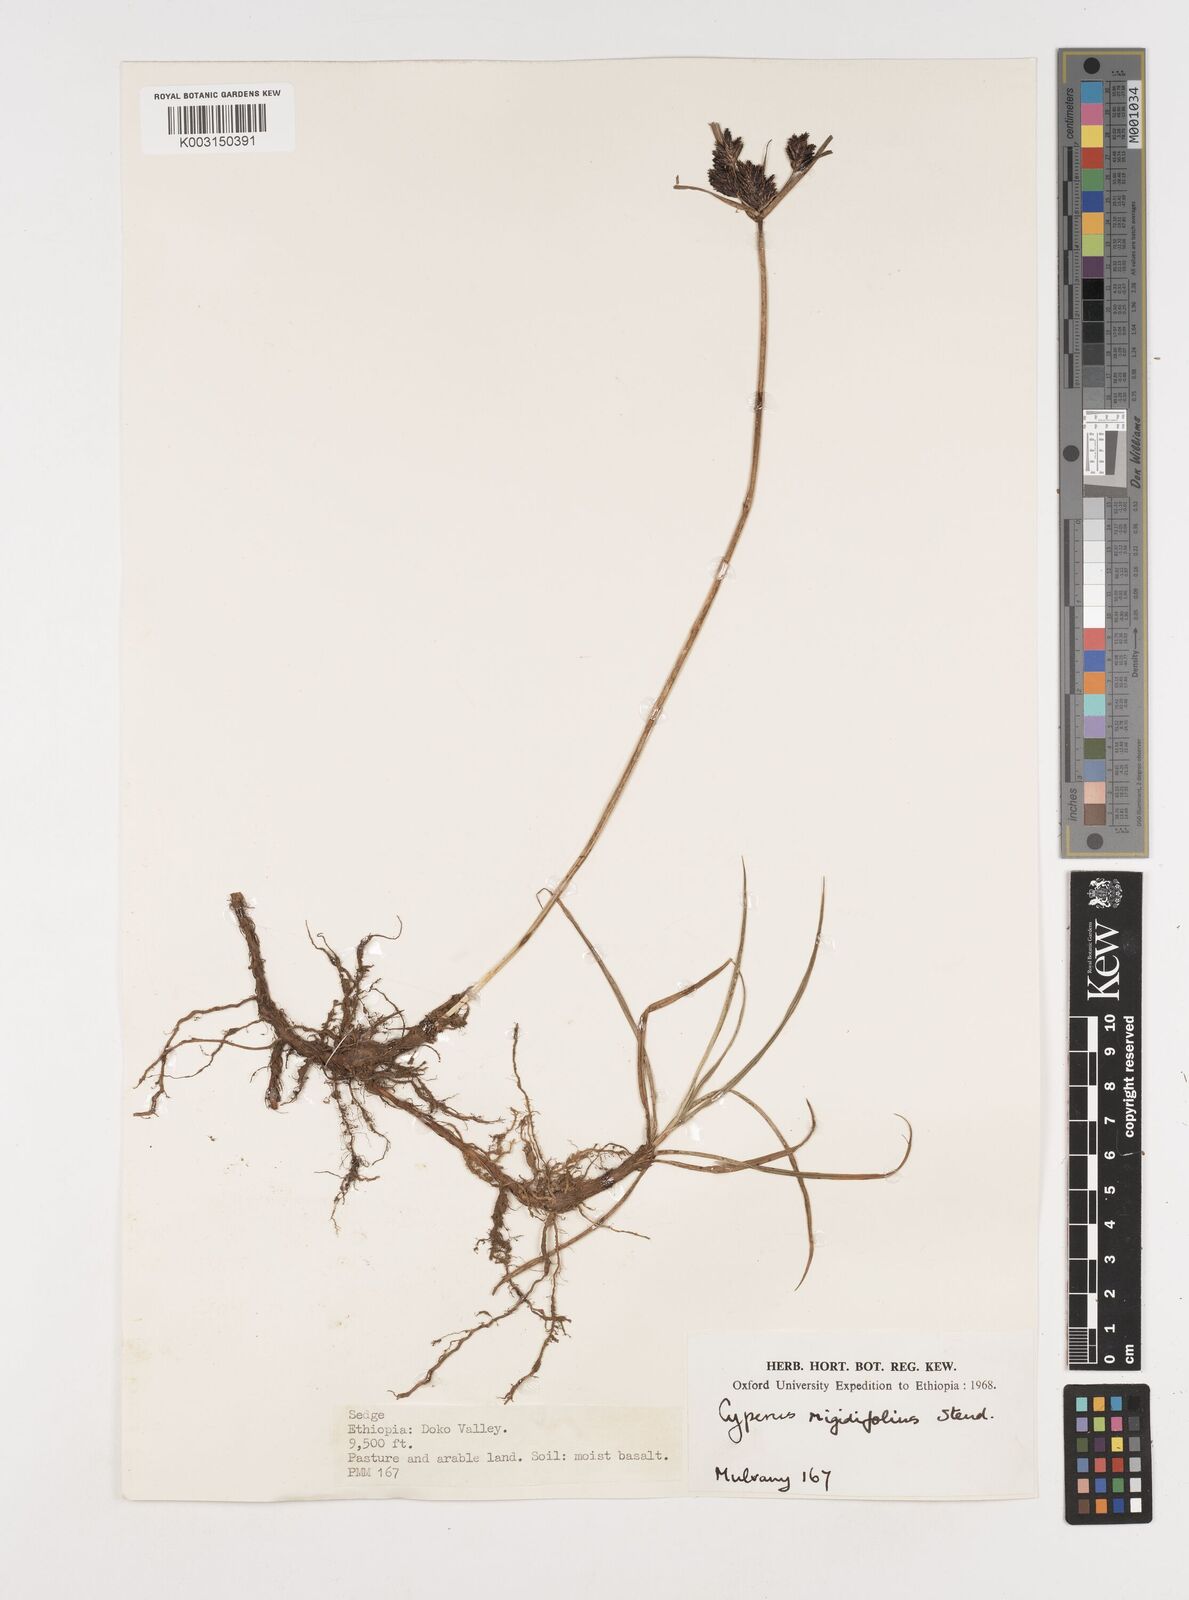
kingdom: Plantae
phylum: Tracheophyta
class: Liliopsida
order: Poales
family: Cyperaceae
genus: Cyperus
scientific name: Cyperus rigidifolius
